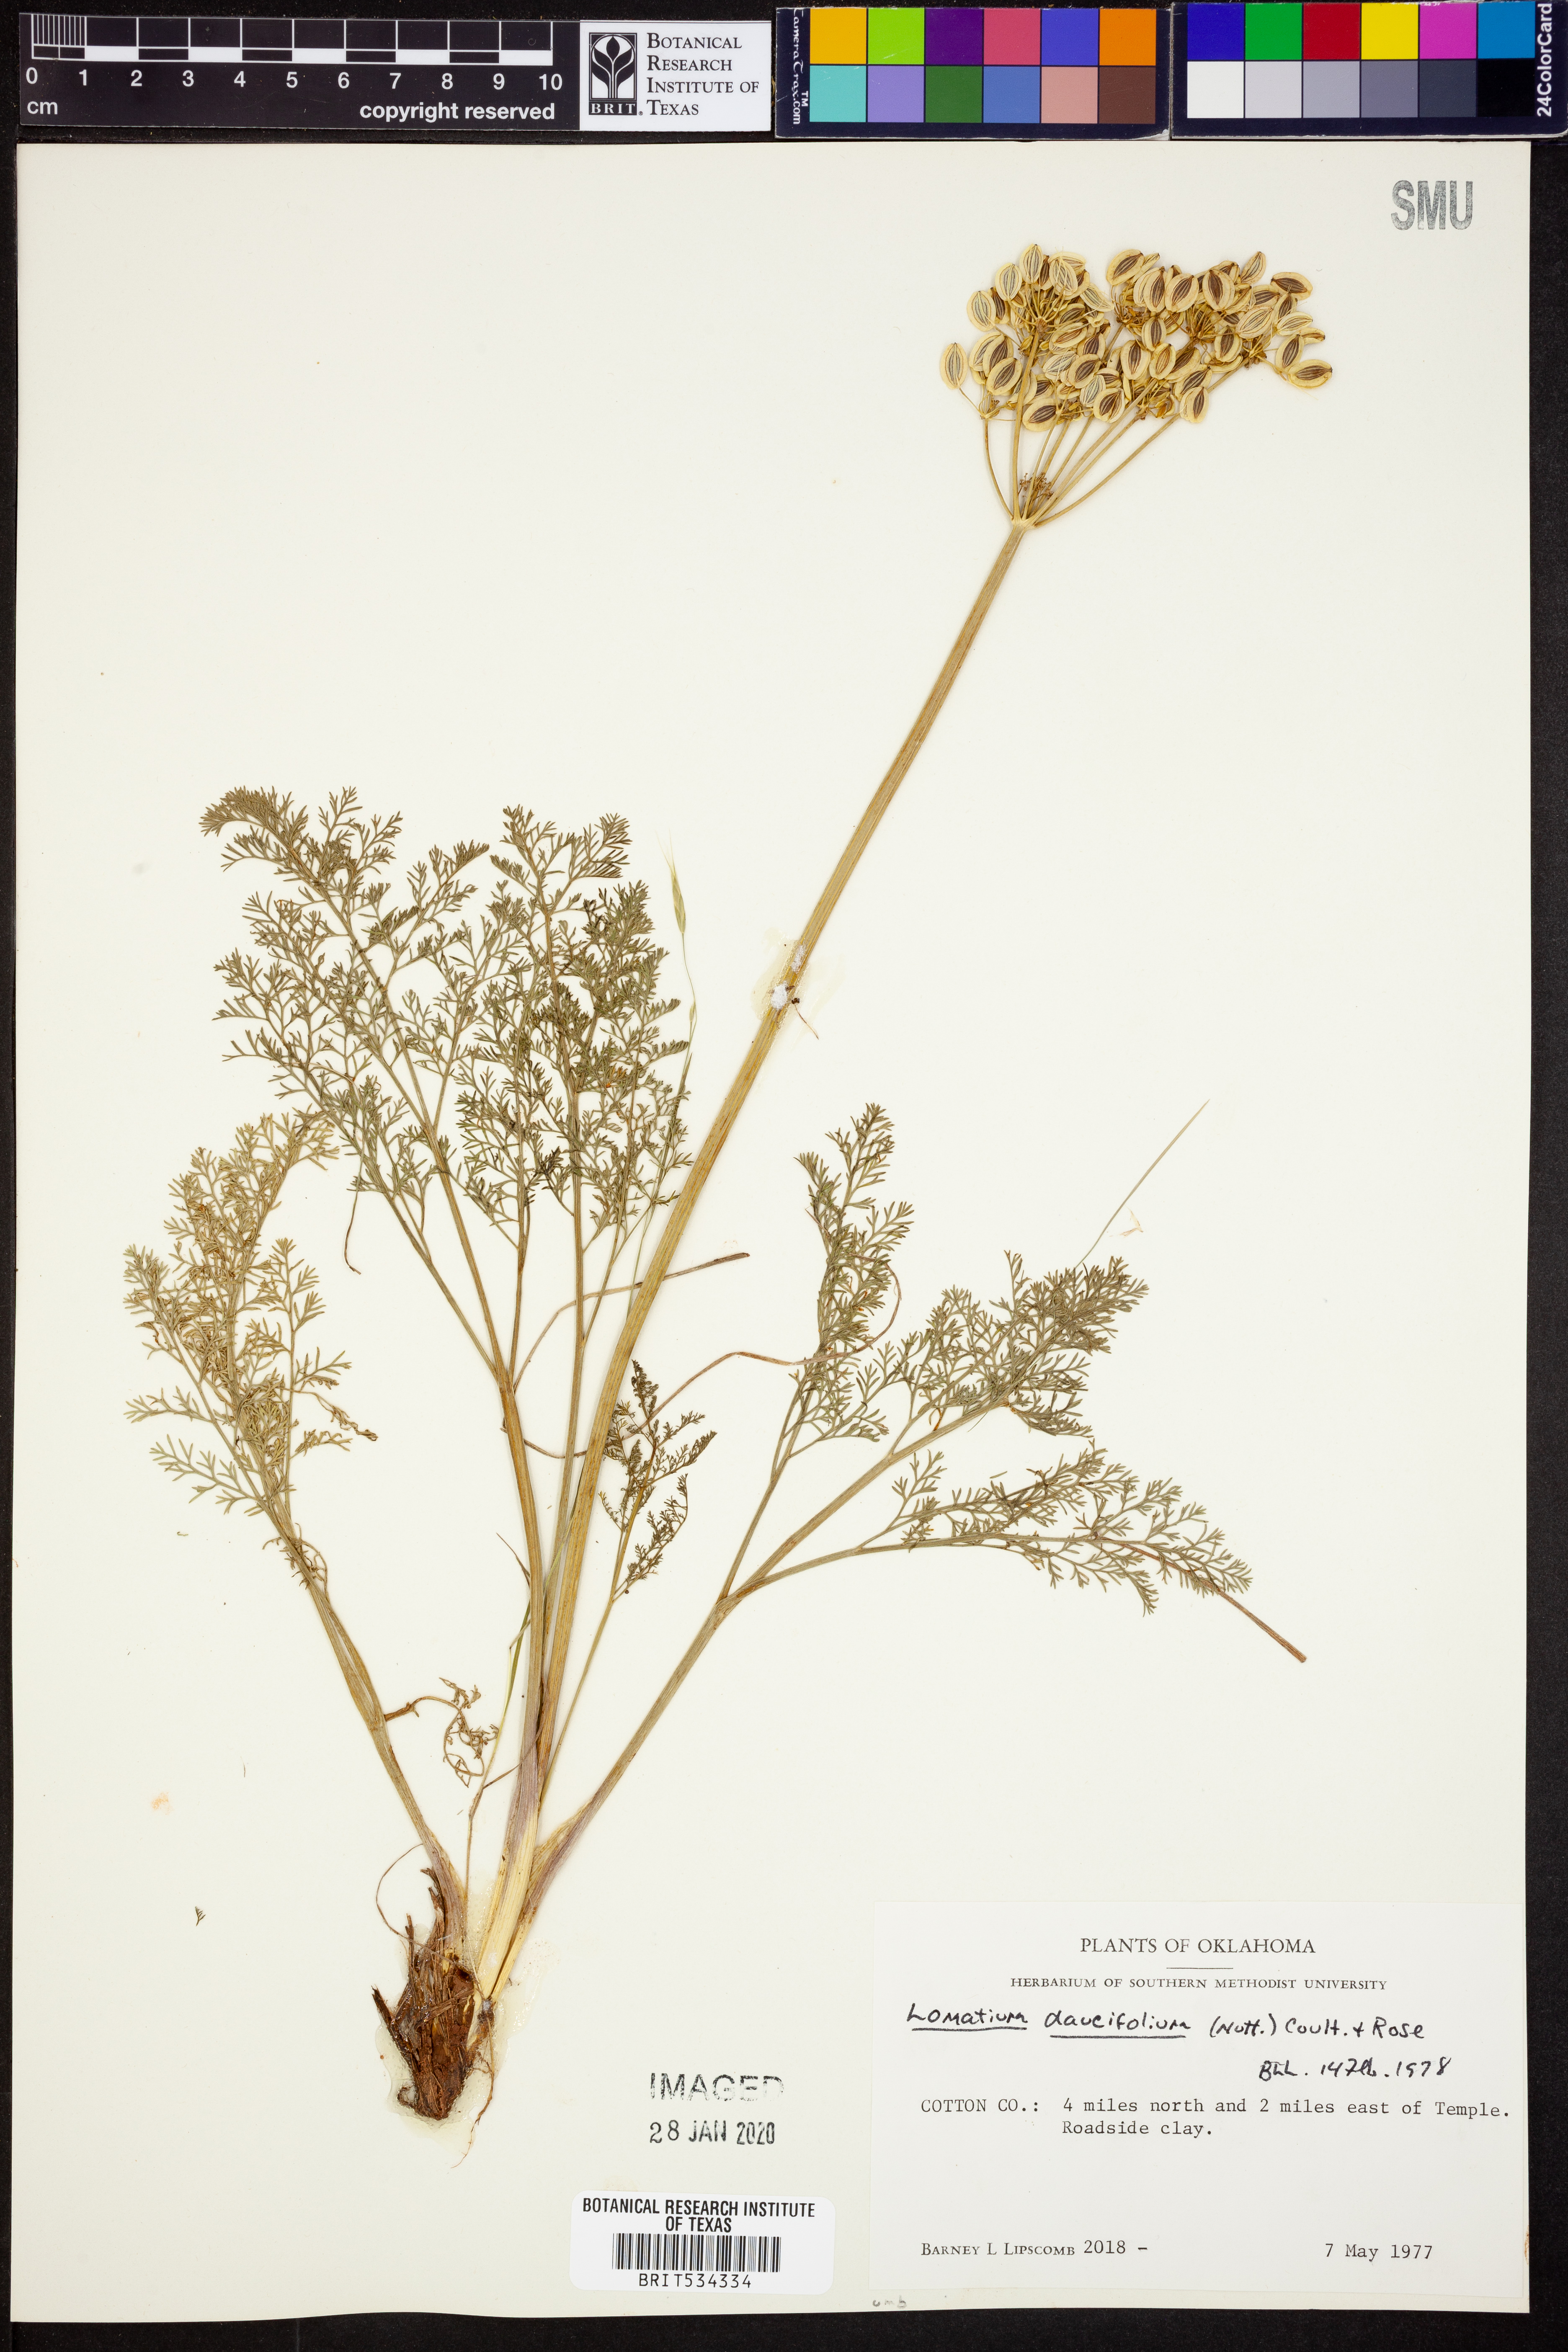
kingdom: Plantae
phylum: Tracheophyta
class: Magnoliopsida
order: Apiales
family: Apiaceae
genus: Lomatium
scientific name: Lomatium foeniculaceum
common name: Desert-parsley
